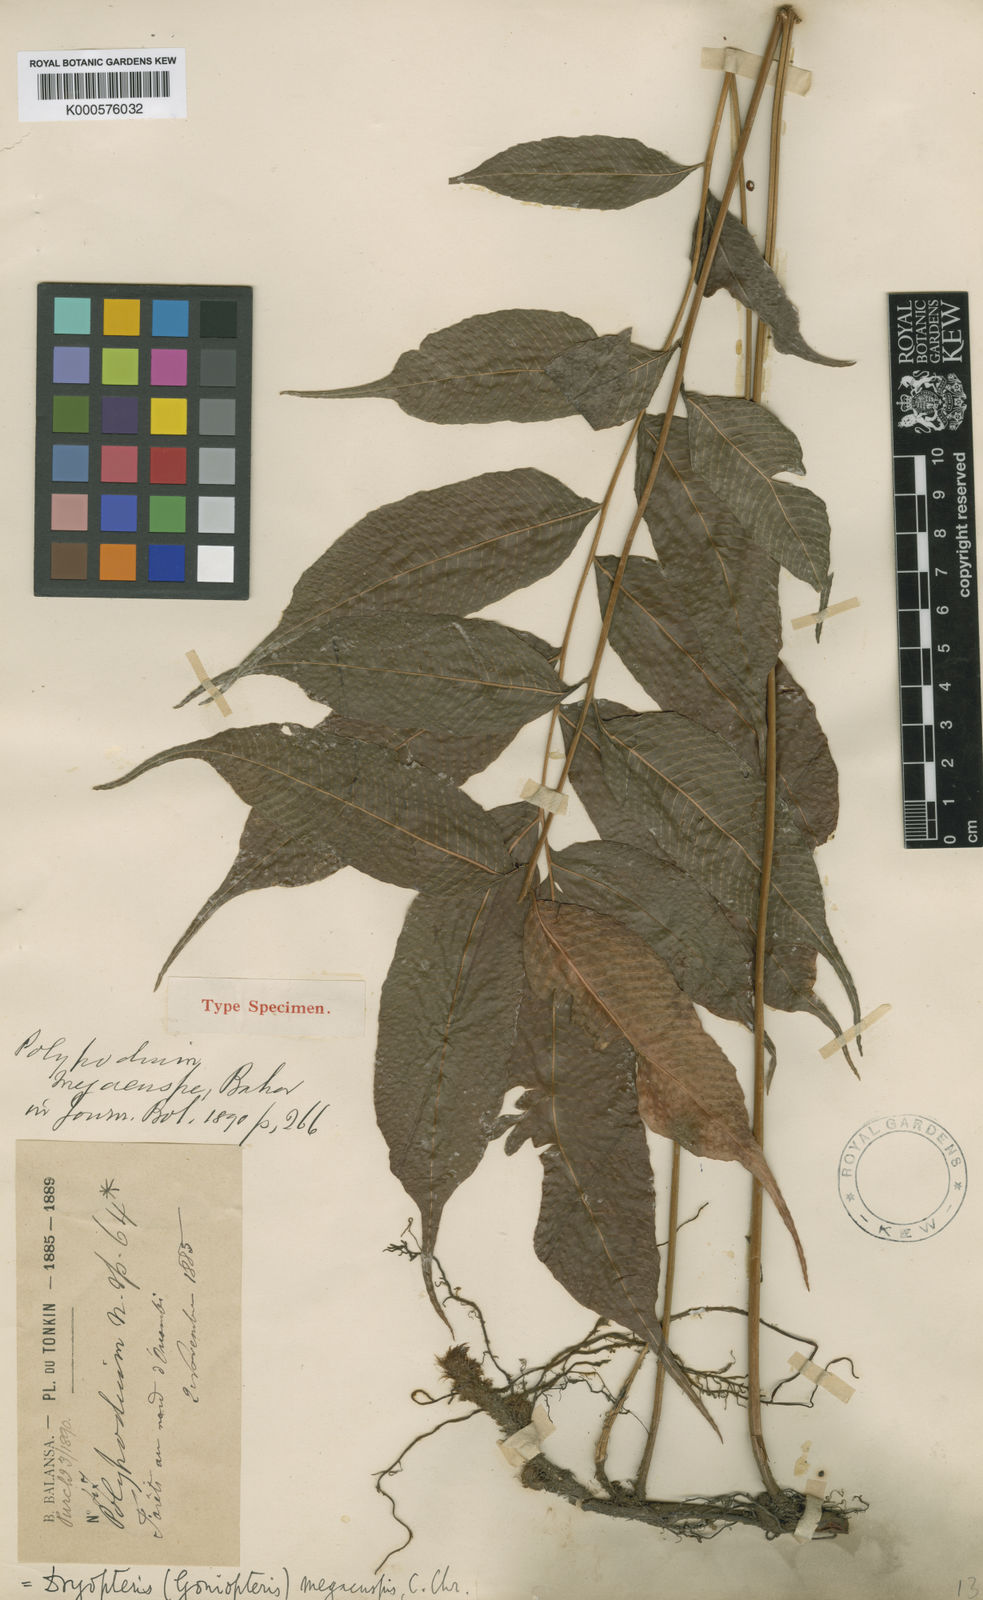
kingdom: Plantae
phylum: Tracheophyta
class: Polypodiopsida
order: Polypodiales
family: Thelypteridaceae
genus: Grypothrix
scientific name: Grypothrix megacuspis
